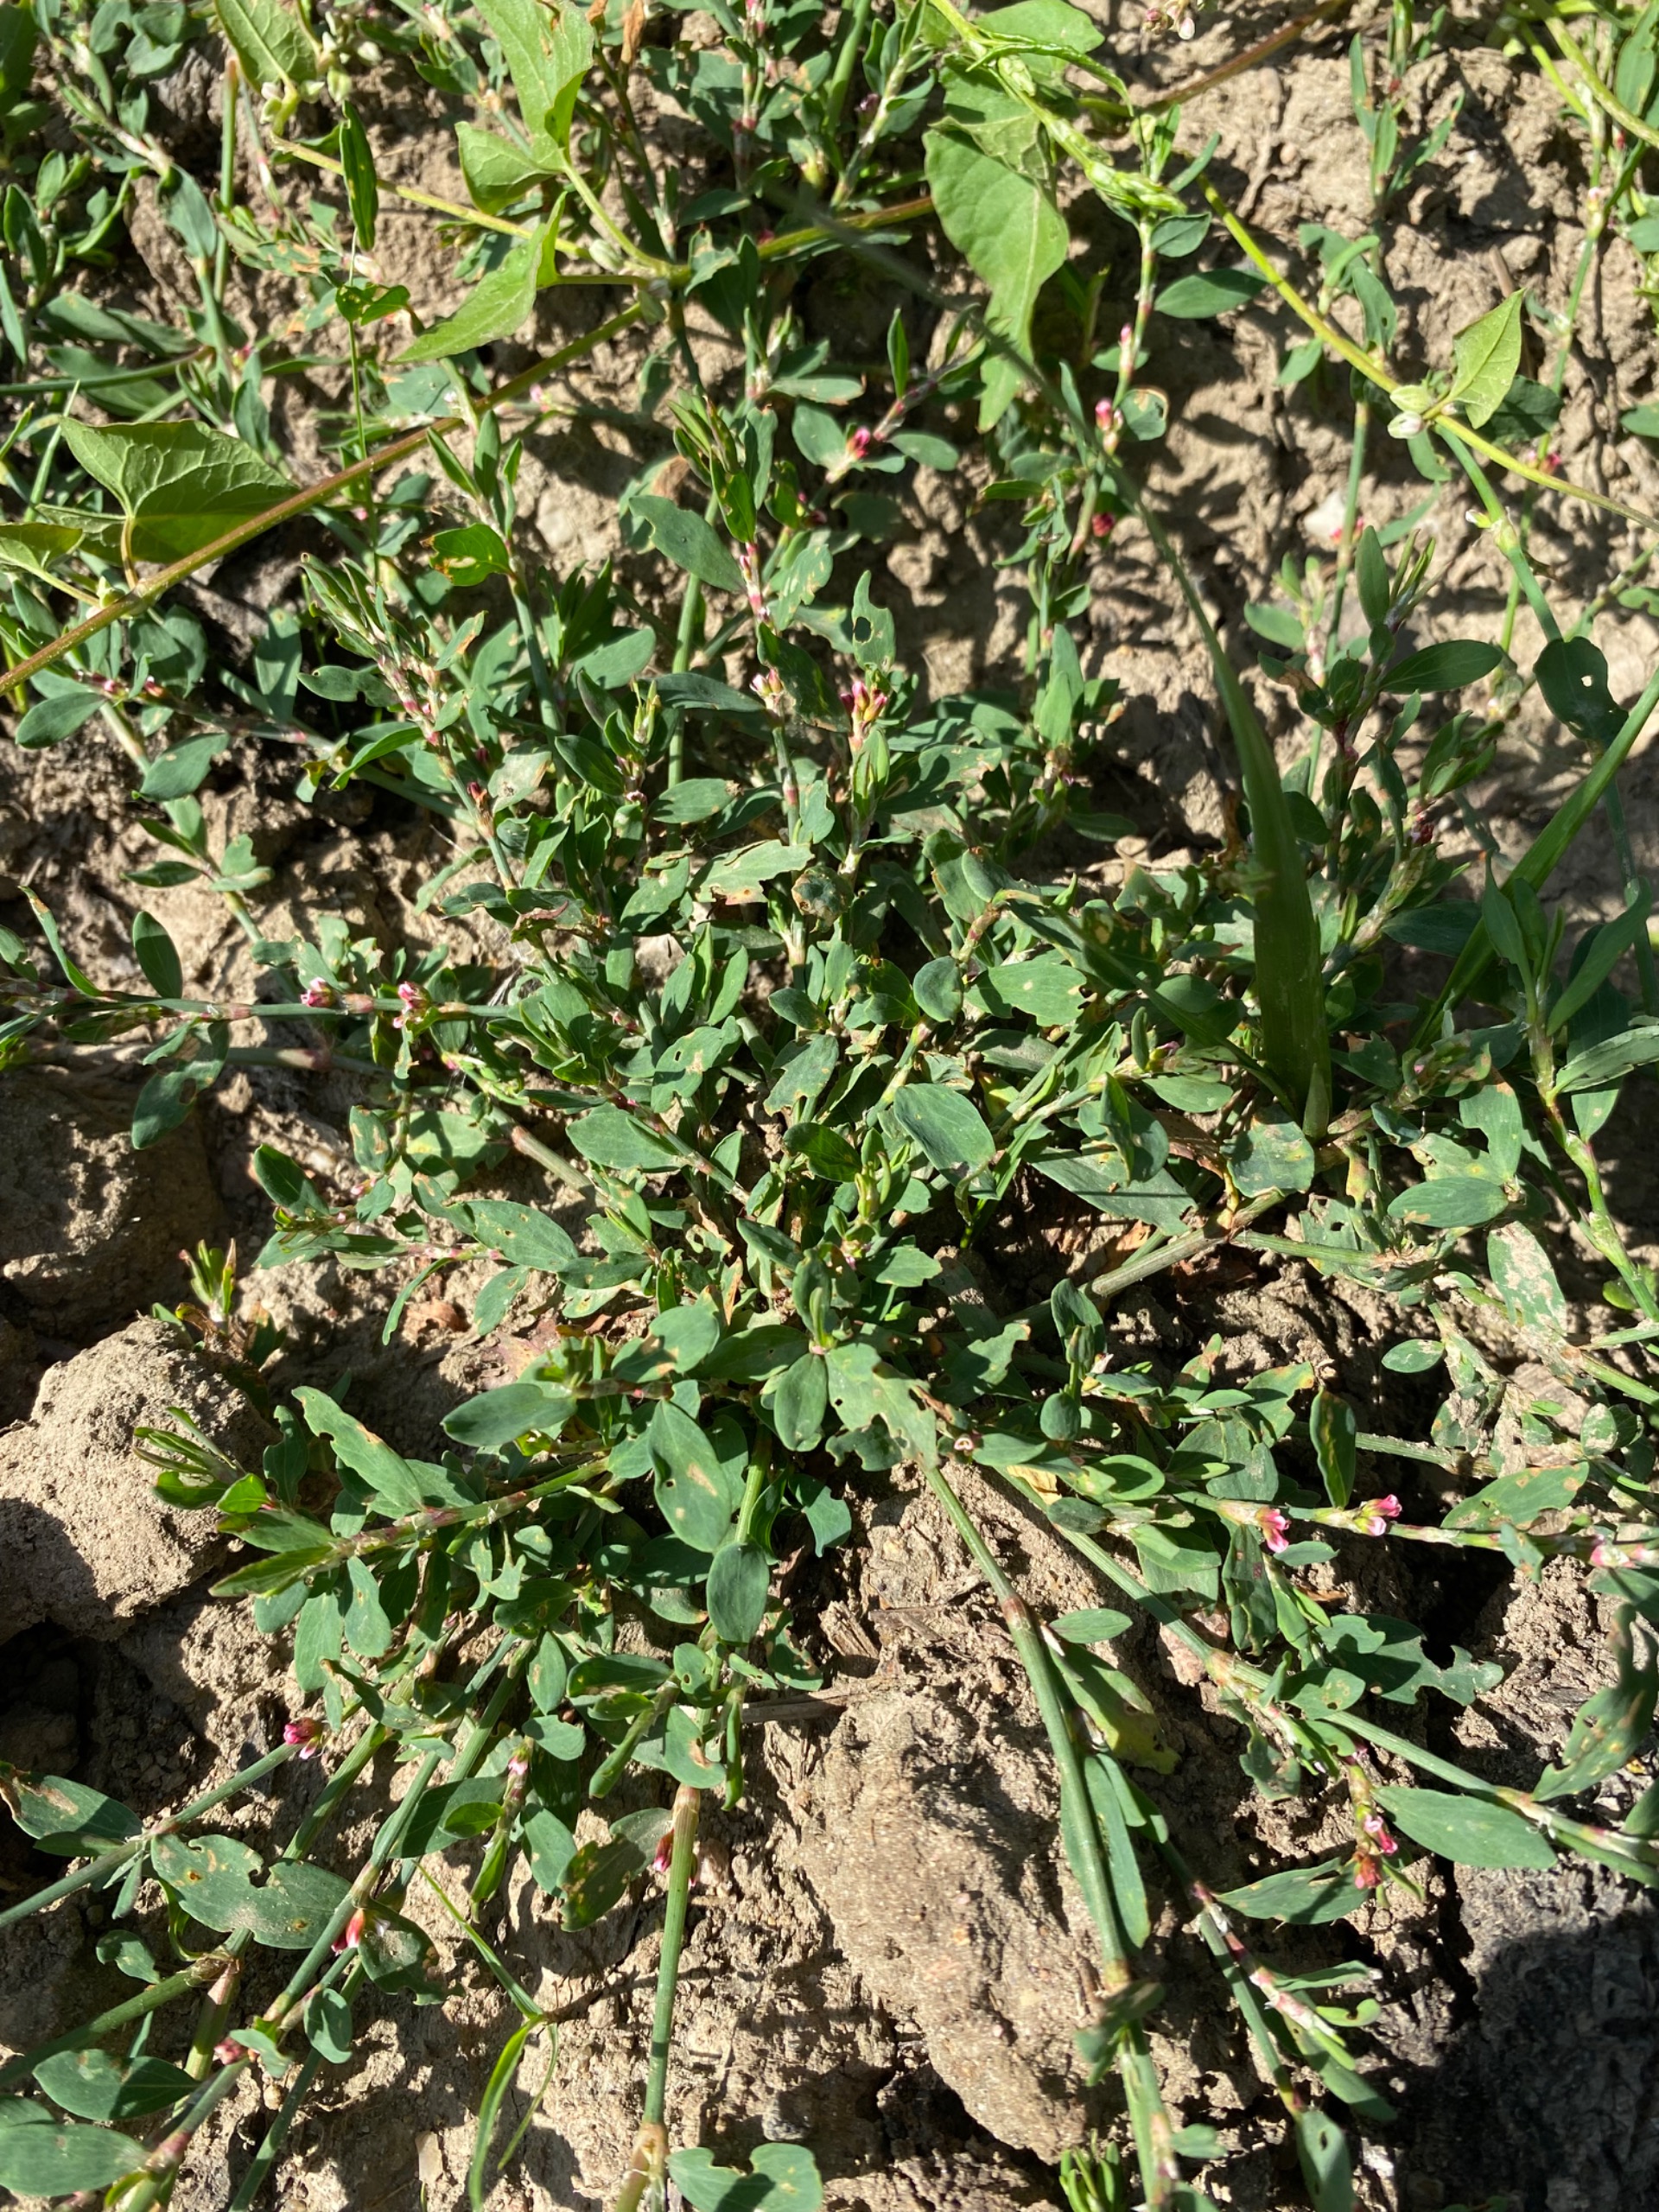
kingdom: Plantae
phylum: Tracheophyta
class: Magnoliopsida
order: Caryophyllales
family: Polygonaceae
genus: Polygonum
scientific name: Polygonum aviculare
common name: Vej-pileurt
